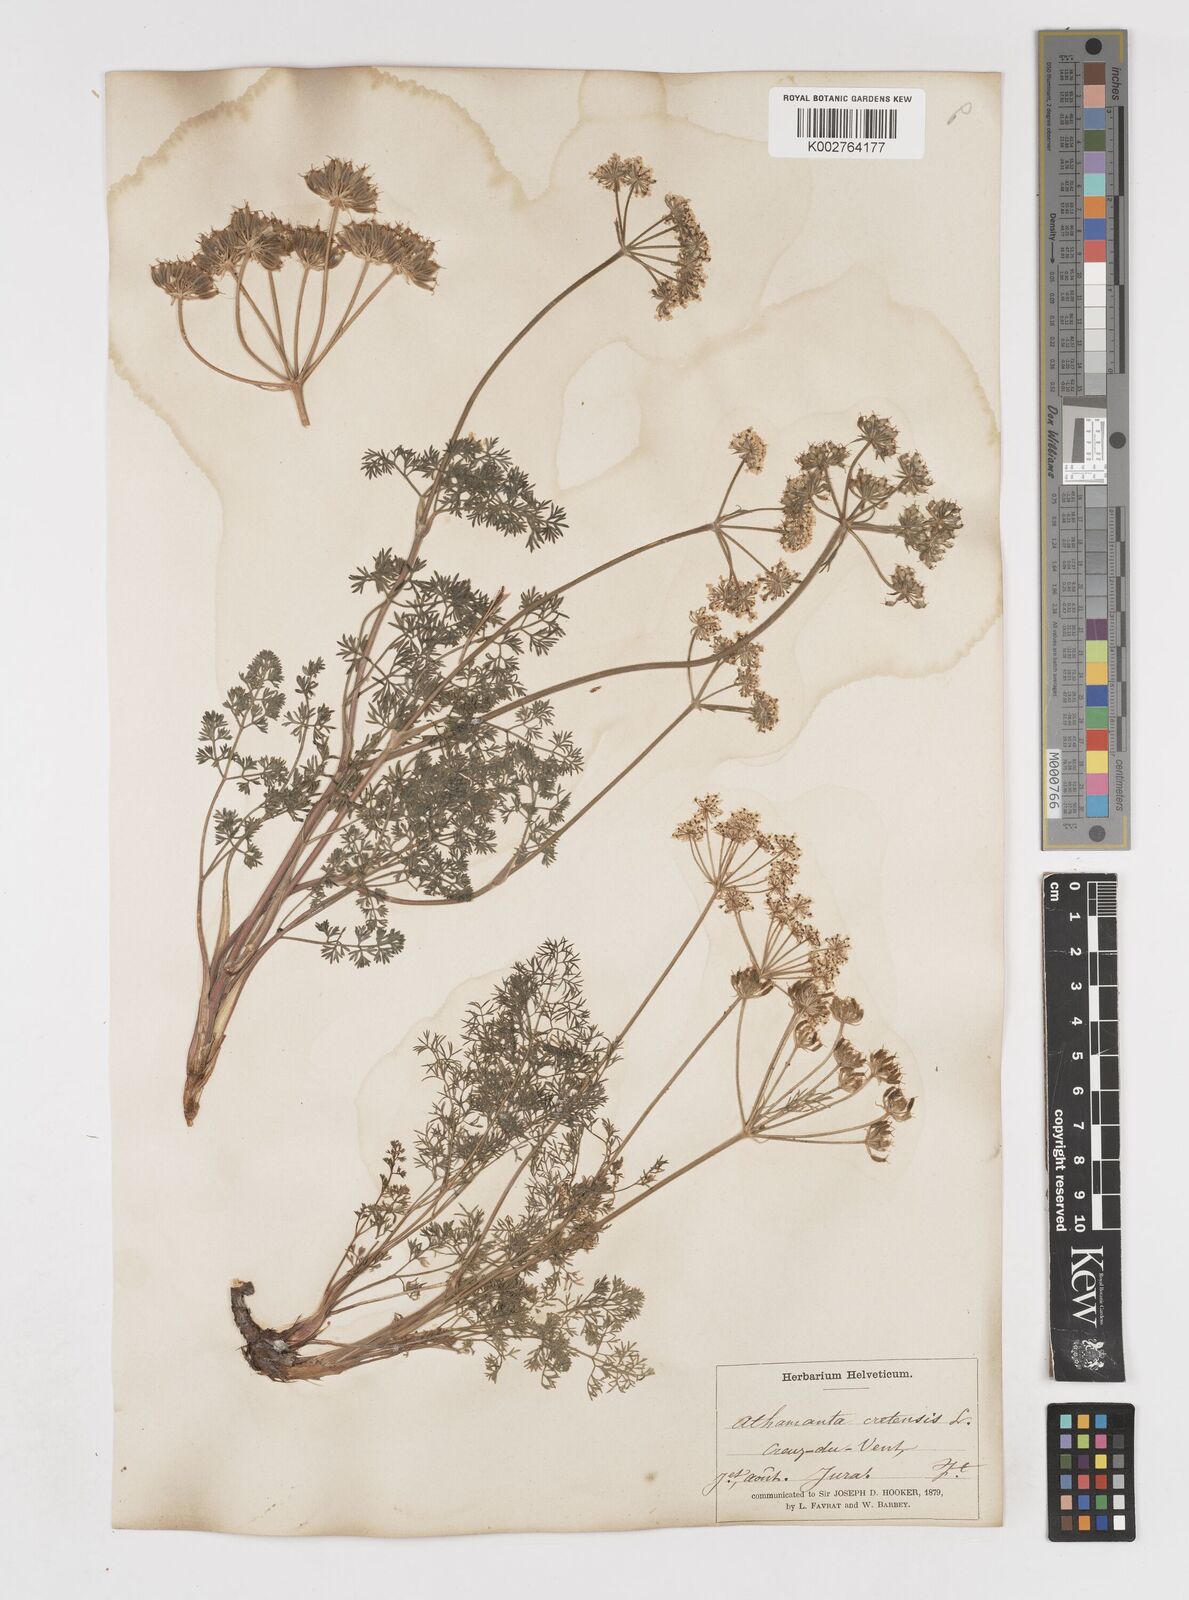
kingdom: Plantae
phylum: Tracheophyta
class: Magnoliopsida
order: Apiales
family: Apiaceae
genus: Athamanta
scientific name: Athamanta cretensis
